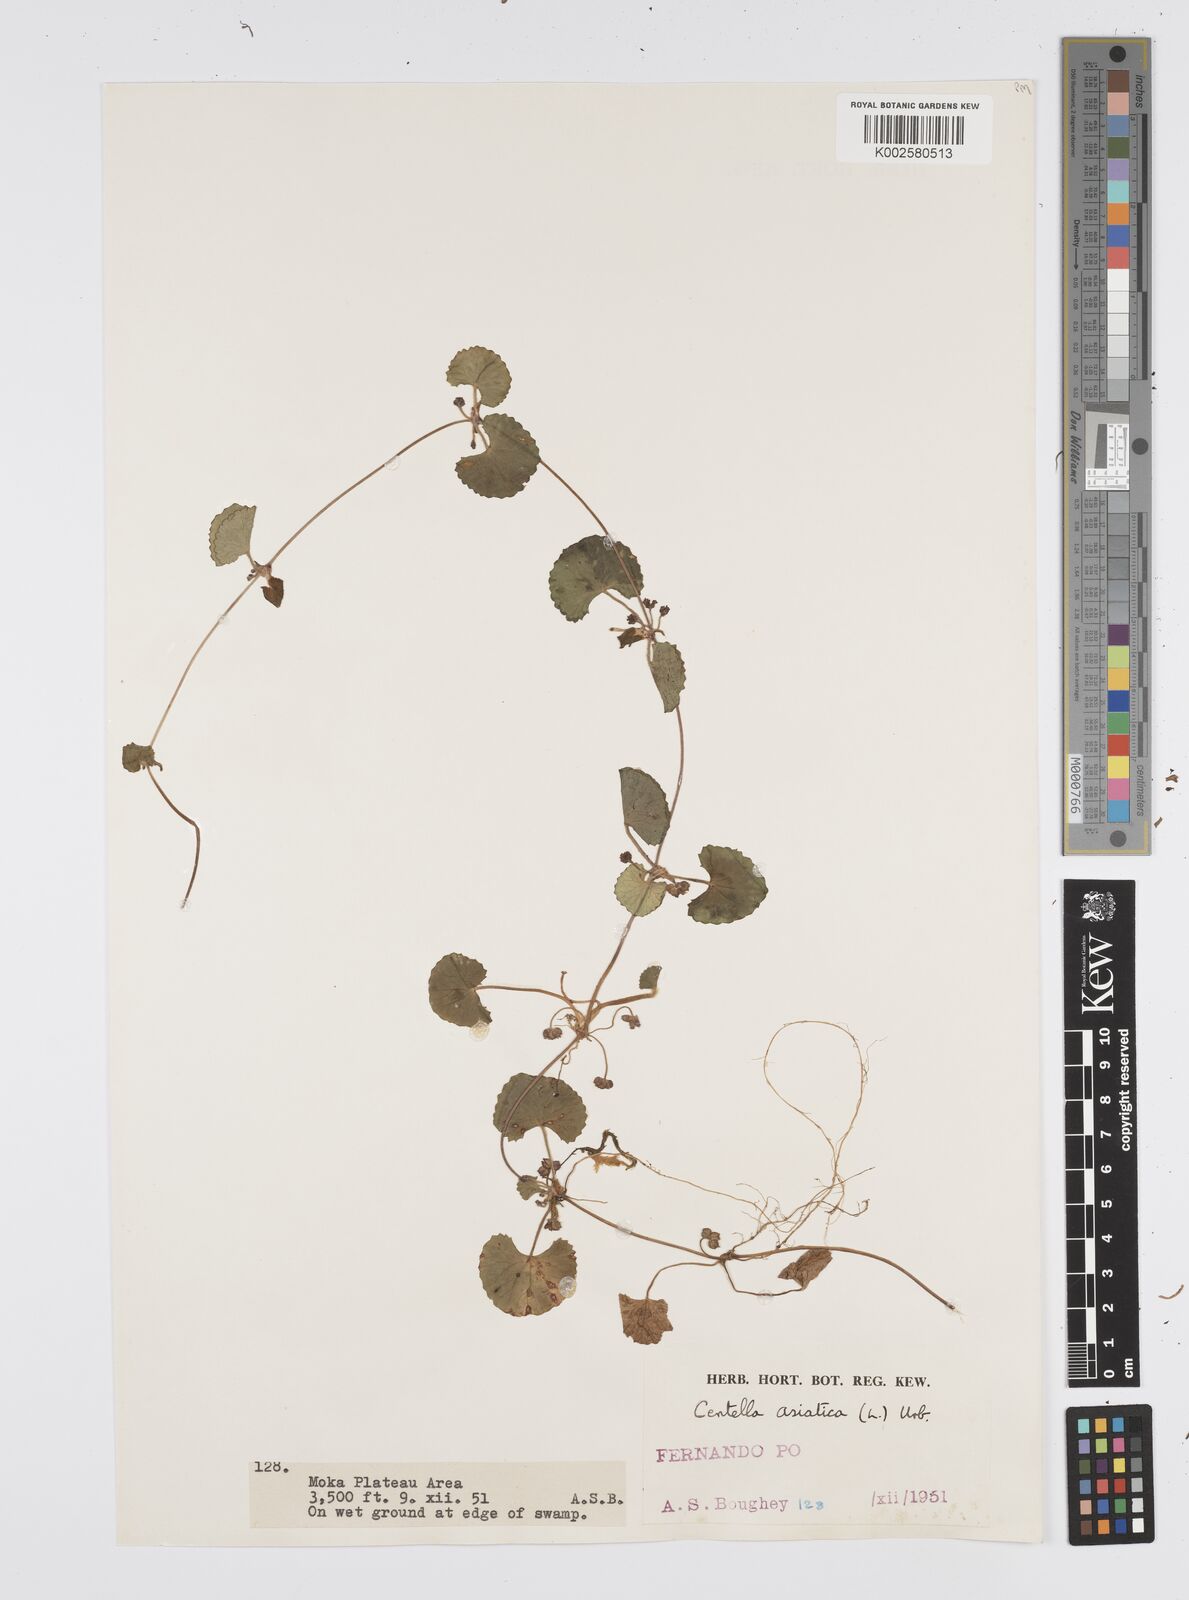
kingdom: Plantae
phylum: Tracheophyta
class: Magnoliopsida
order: Apiales
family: Apiaceae
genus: Centella
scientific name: Centella asiatica
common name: Spadeleaf
